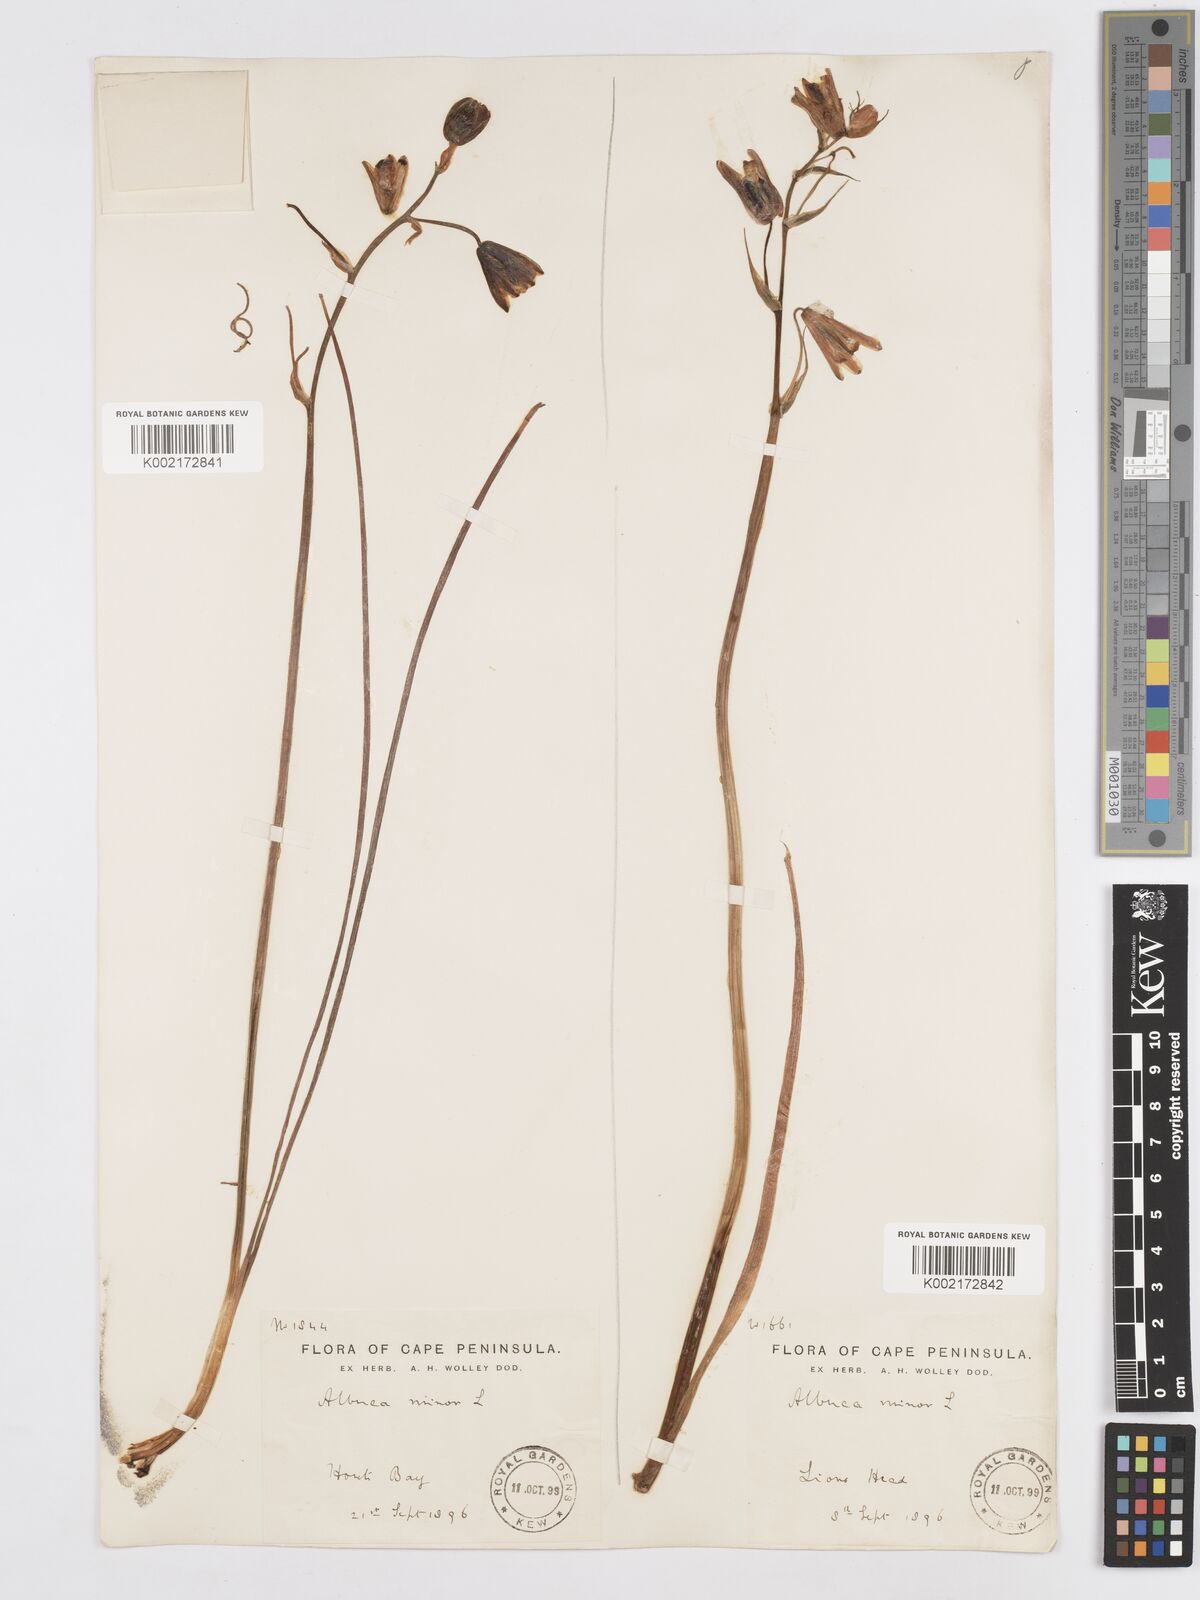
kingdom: Plantae
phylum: Tracheophyta
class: Liliopsida
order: Asparagales
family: Asparagaceae
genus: Albuca
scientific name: Albuca canadensis
